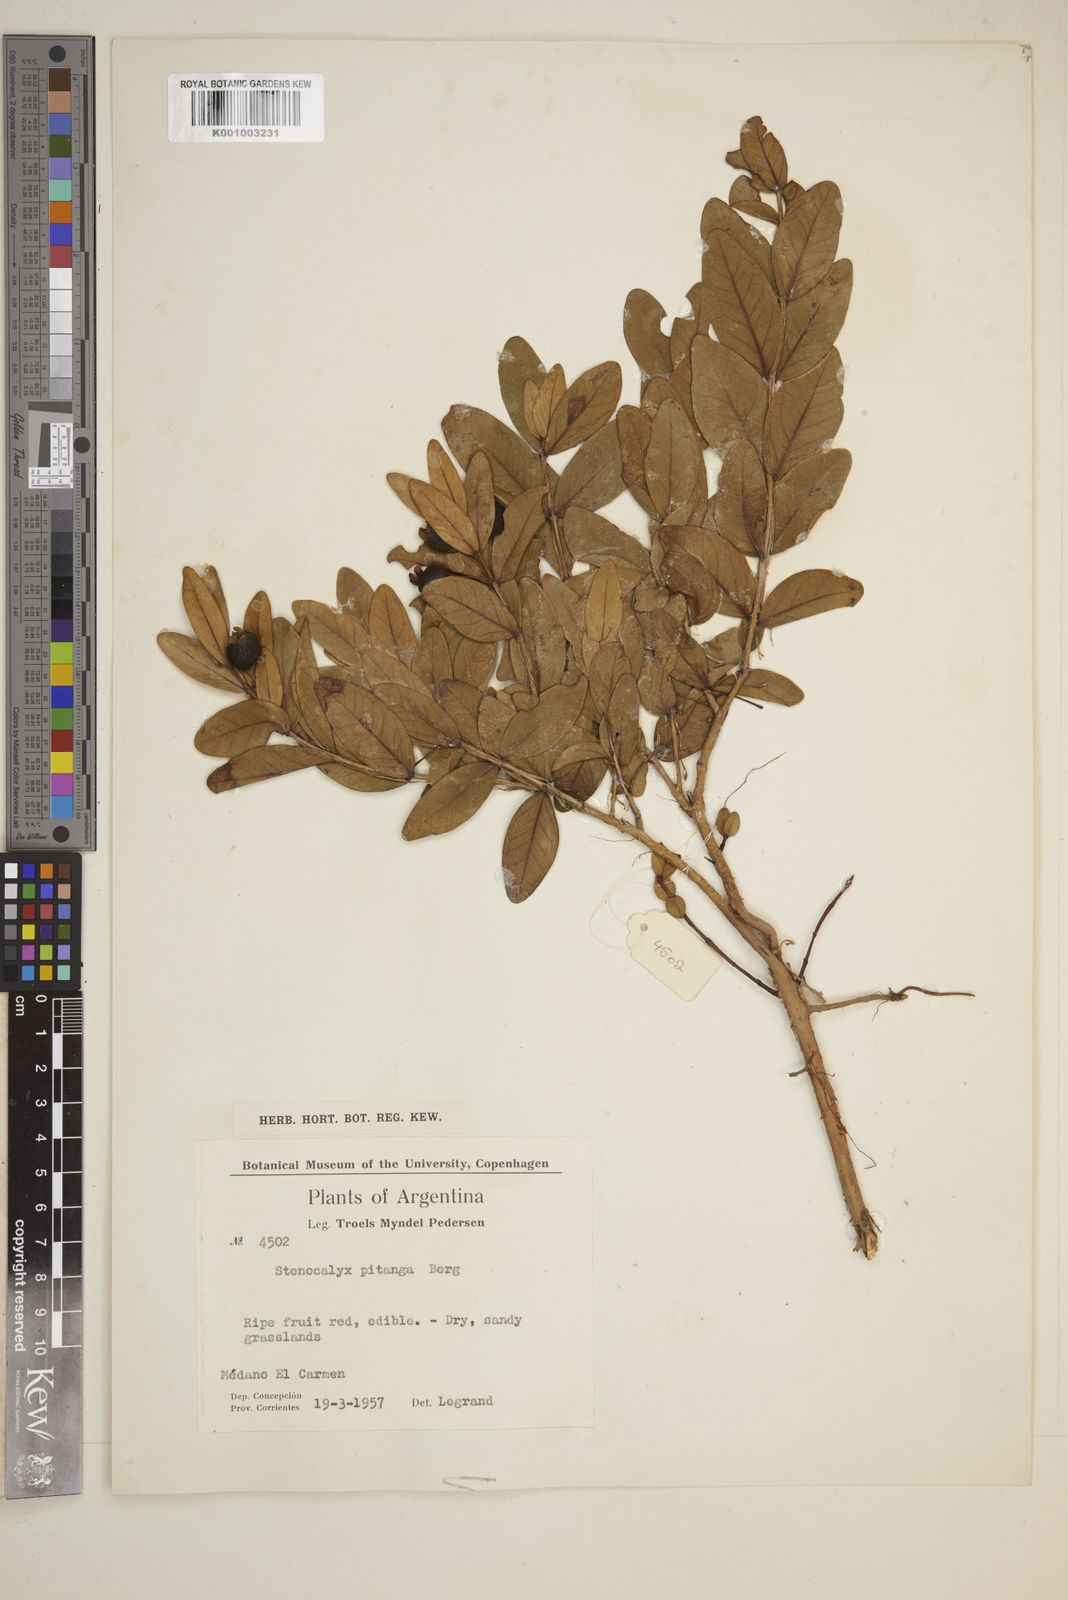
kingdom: Plantae
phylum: Tracheophyta
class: Magnoliopsida
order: Myrtales
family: Myrtaceae
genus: Eugenia
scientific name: Eugenia pitanga
